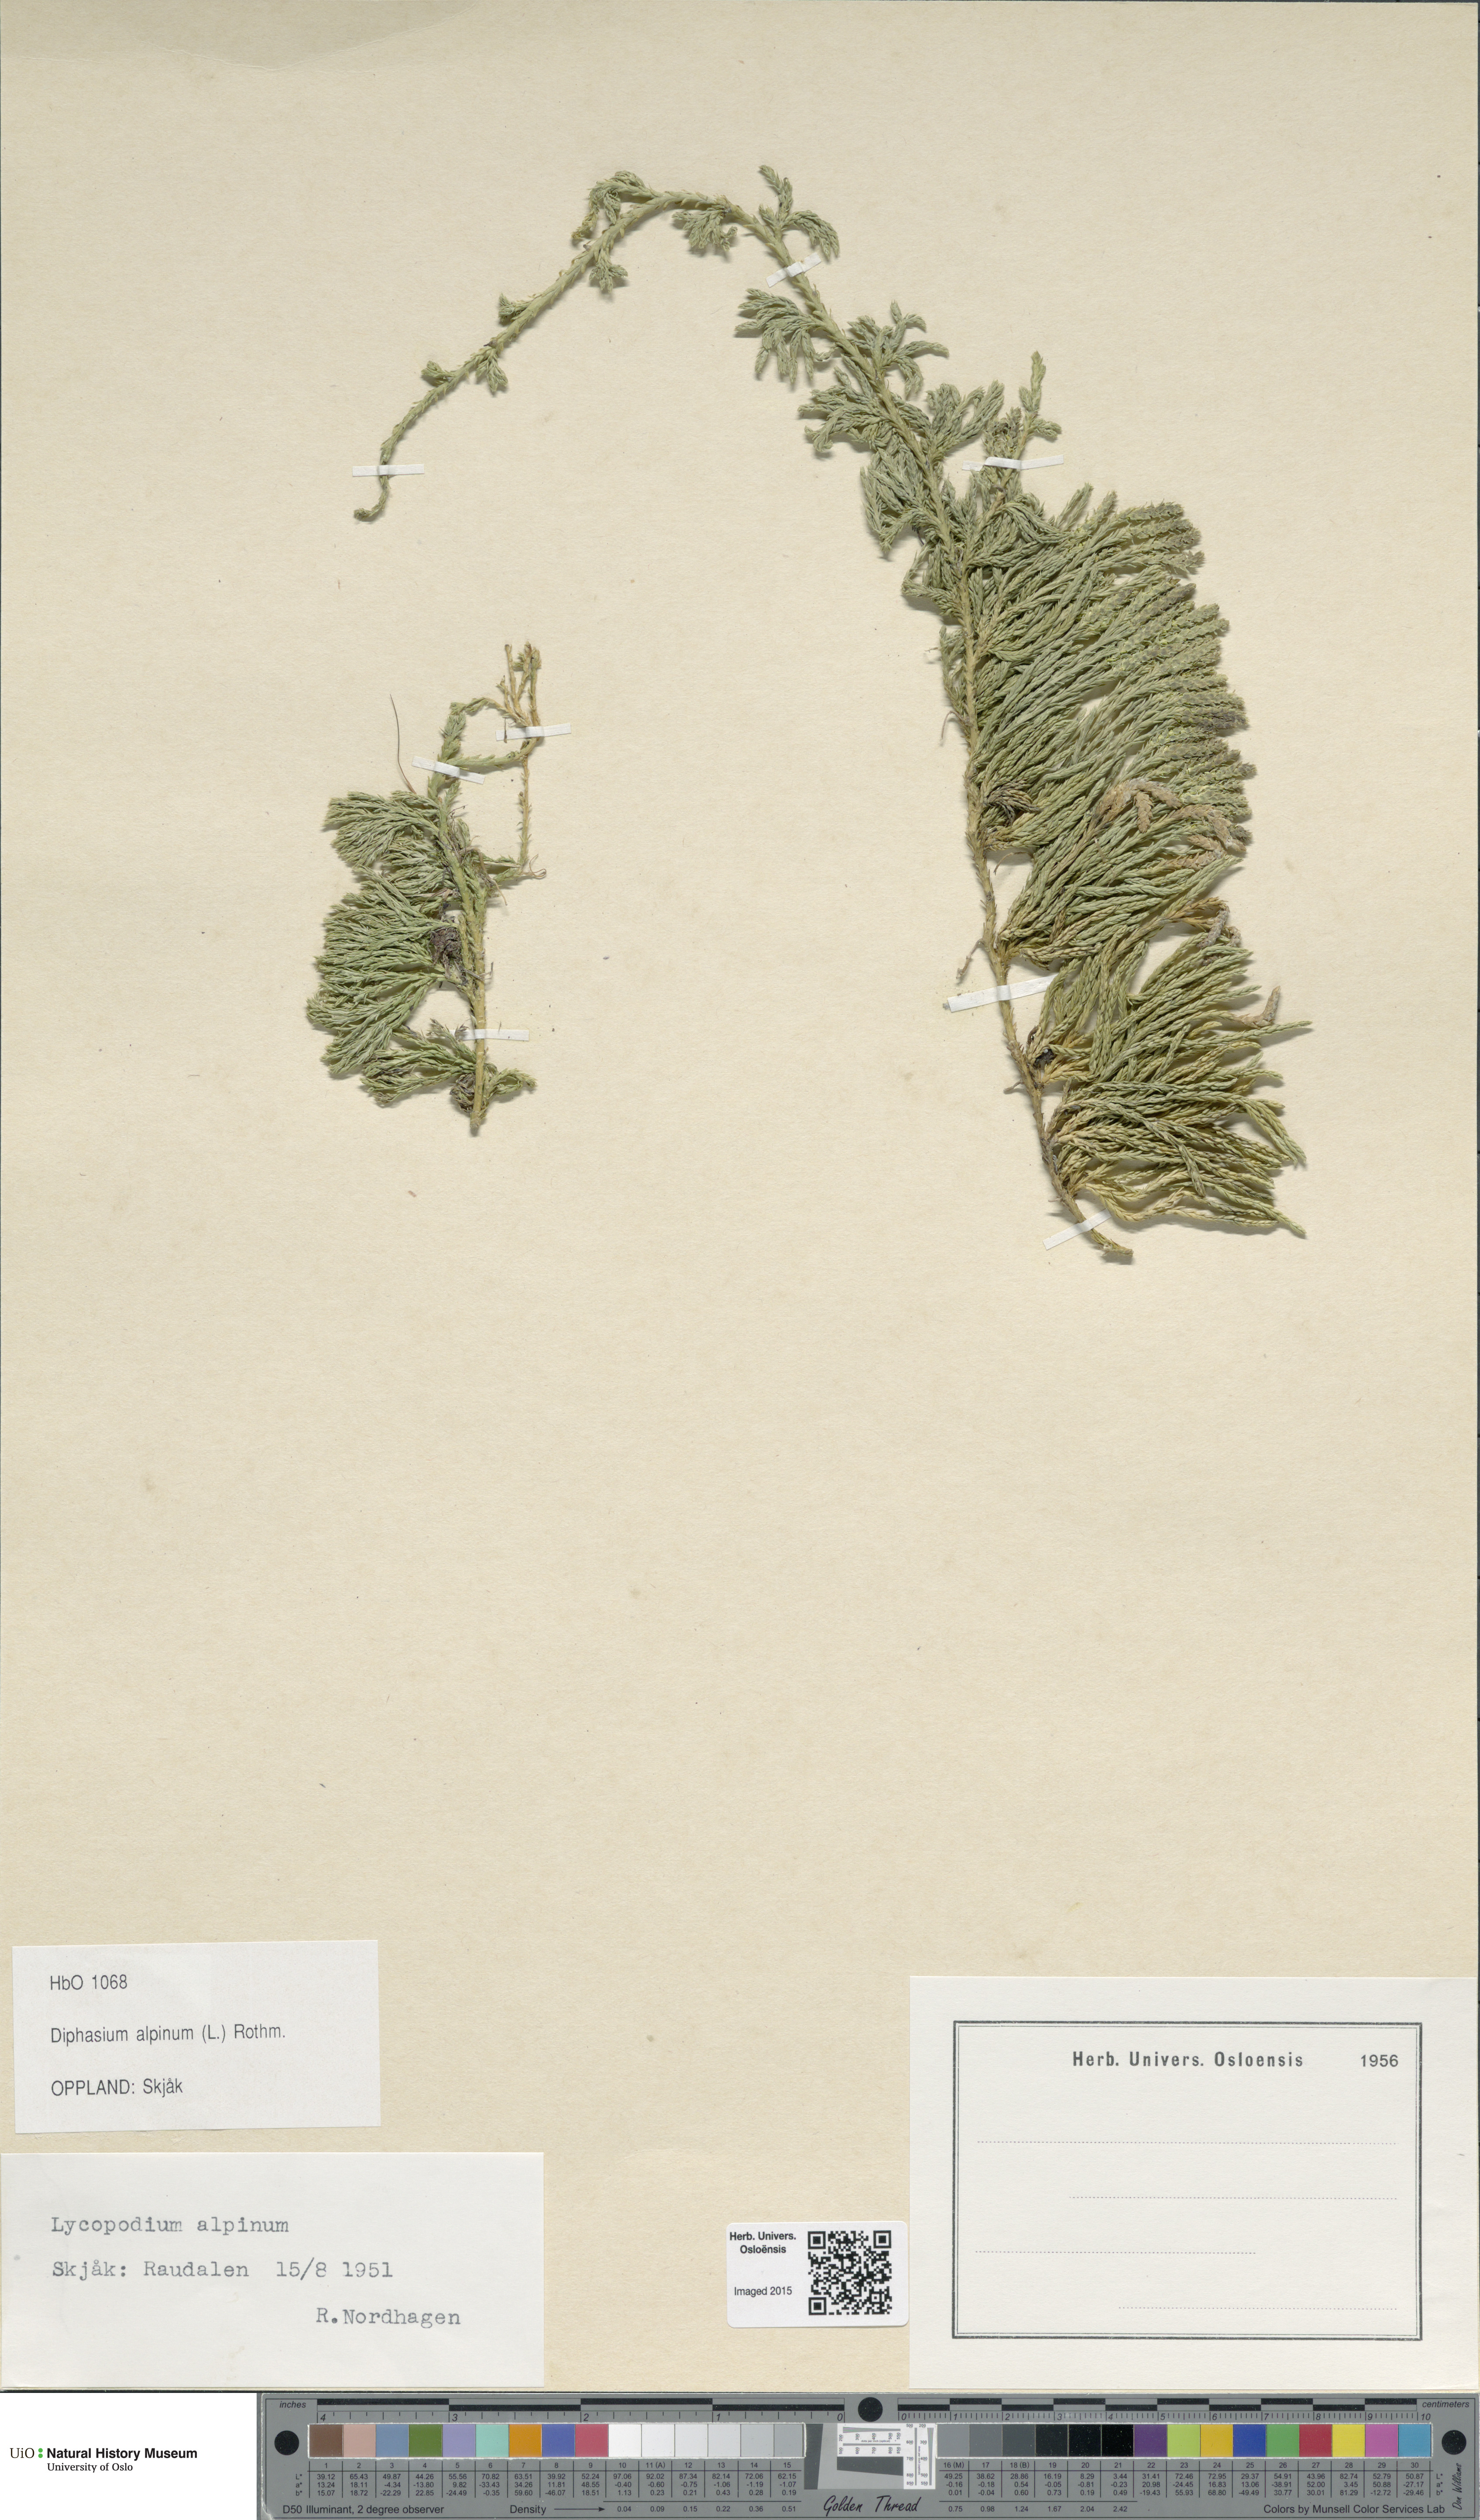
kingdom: Plantae
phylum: Tracheophyta
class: Lycopodiopsida
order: Lycopodiales
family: Lycopodiaceae
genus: Diphasiastrum
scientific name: Diphasiastrum alpinum
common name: Alpine clubmoss
